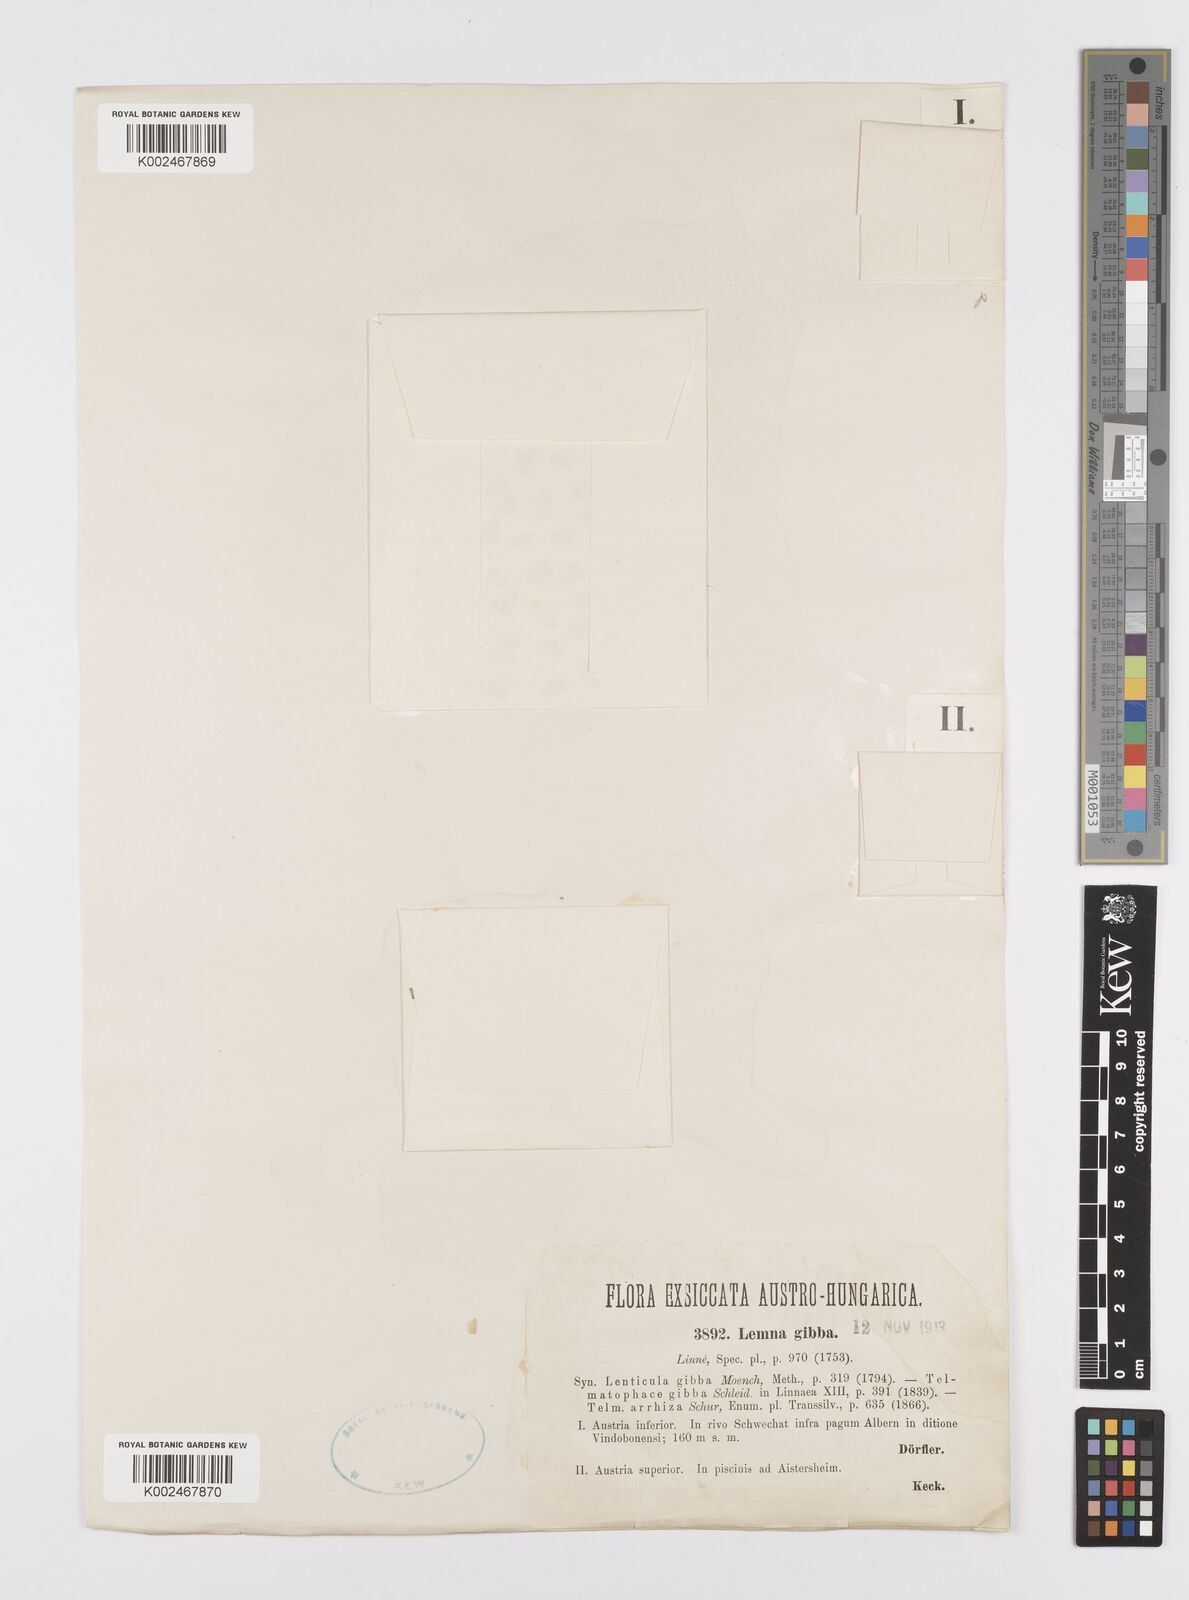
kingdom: Plantae
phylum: Tracheophyta
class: Liliopsida
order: Alismatales
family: Araceae
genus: Lemna
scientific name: Lemna gibba
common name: Fat duckweed
